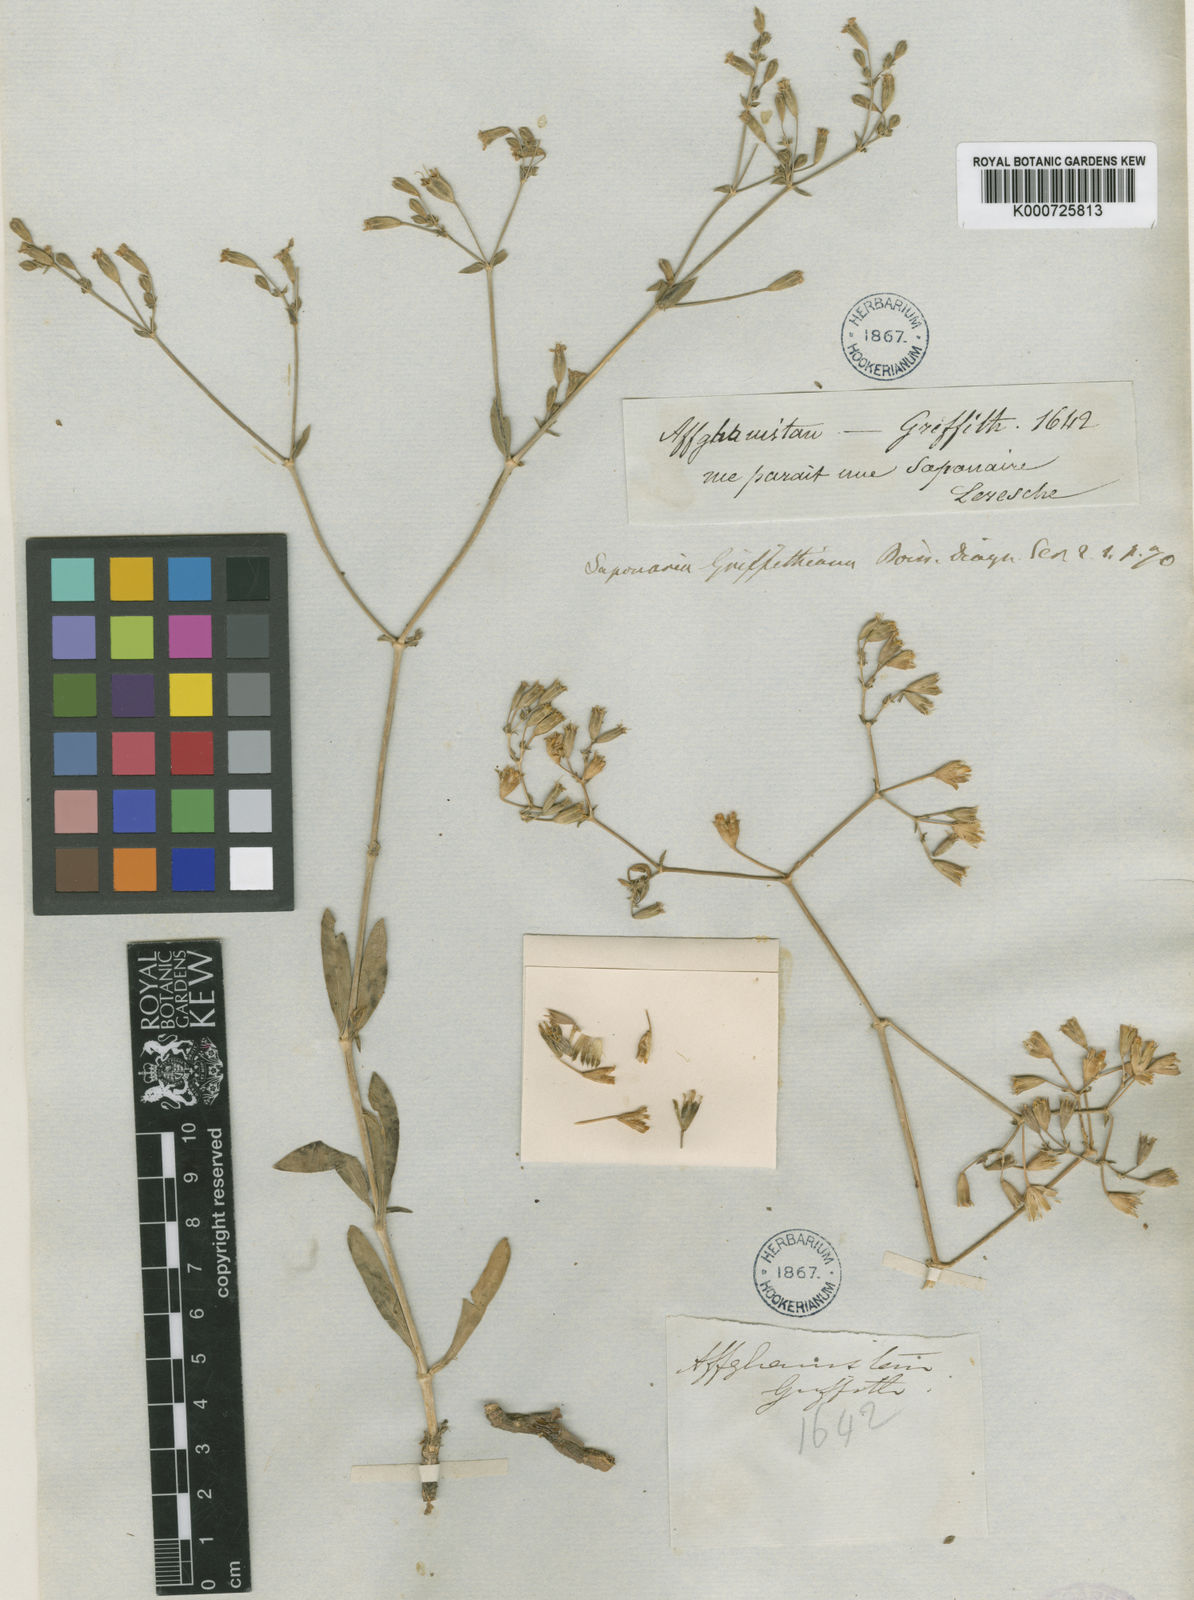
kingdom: Plantae
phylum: Tracheophyta
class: Magnoliopsida
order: Caryophyllales
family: Caryophyllaceae
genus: Saponaria
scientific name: Saponaria griffithiana
